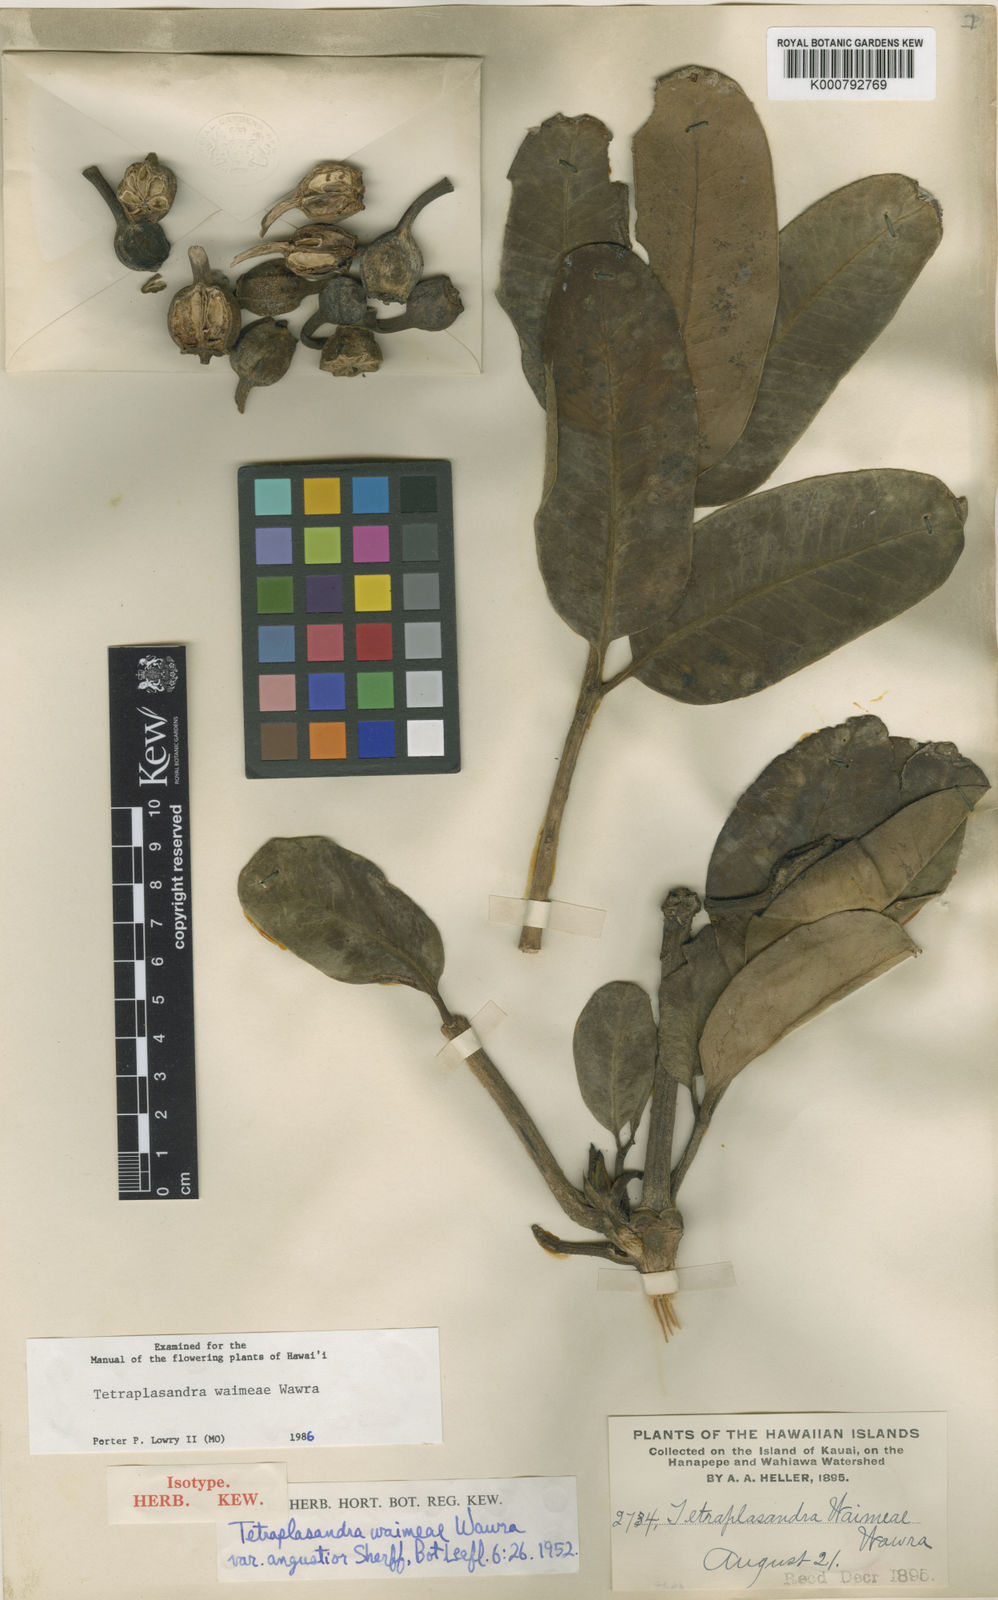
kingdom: Plantae
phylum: Tracheophyta
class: Magnoliopsida
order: Apiales
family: Araliaceae
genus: Polyscias
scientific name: Polyscias waimeae
